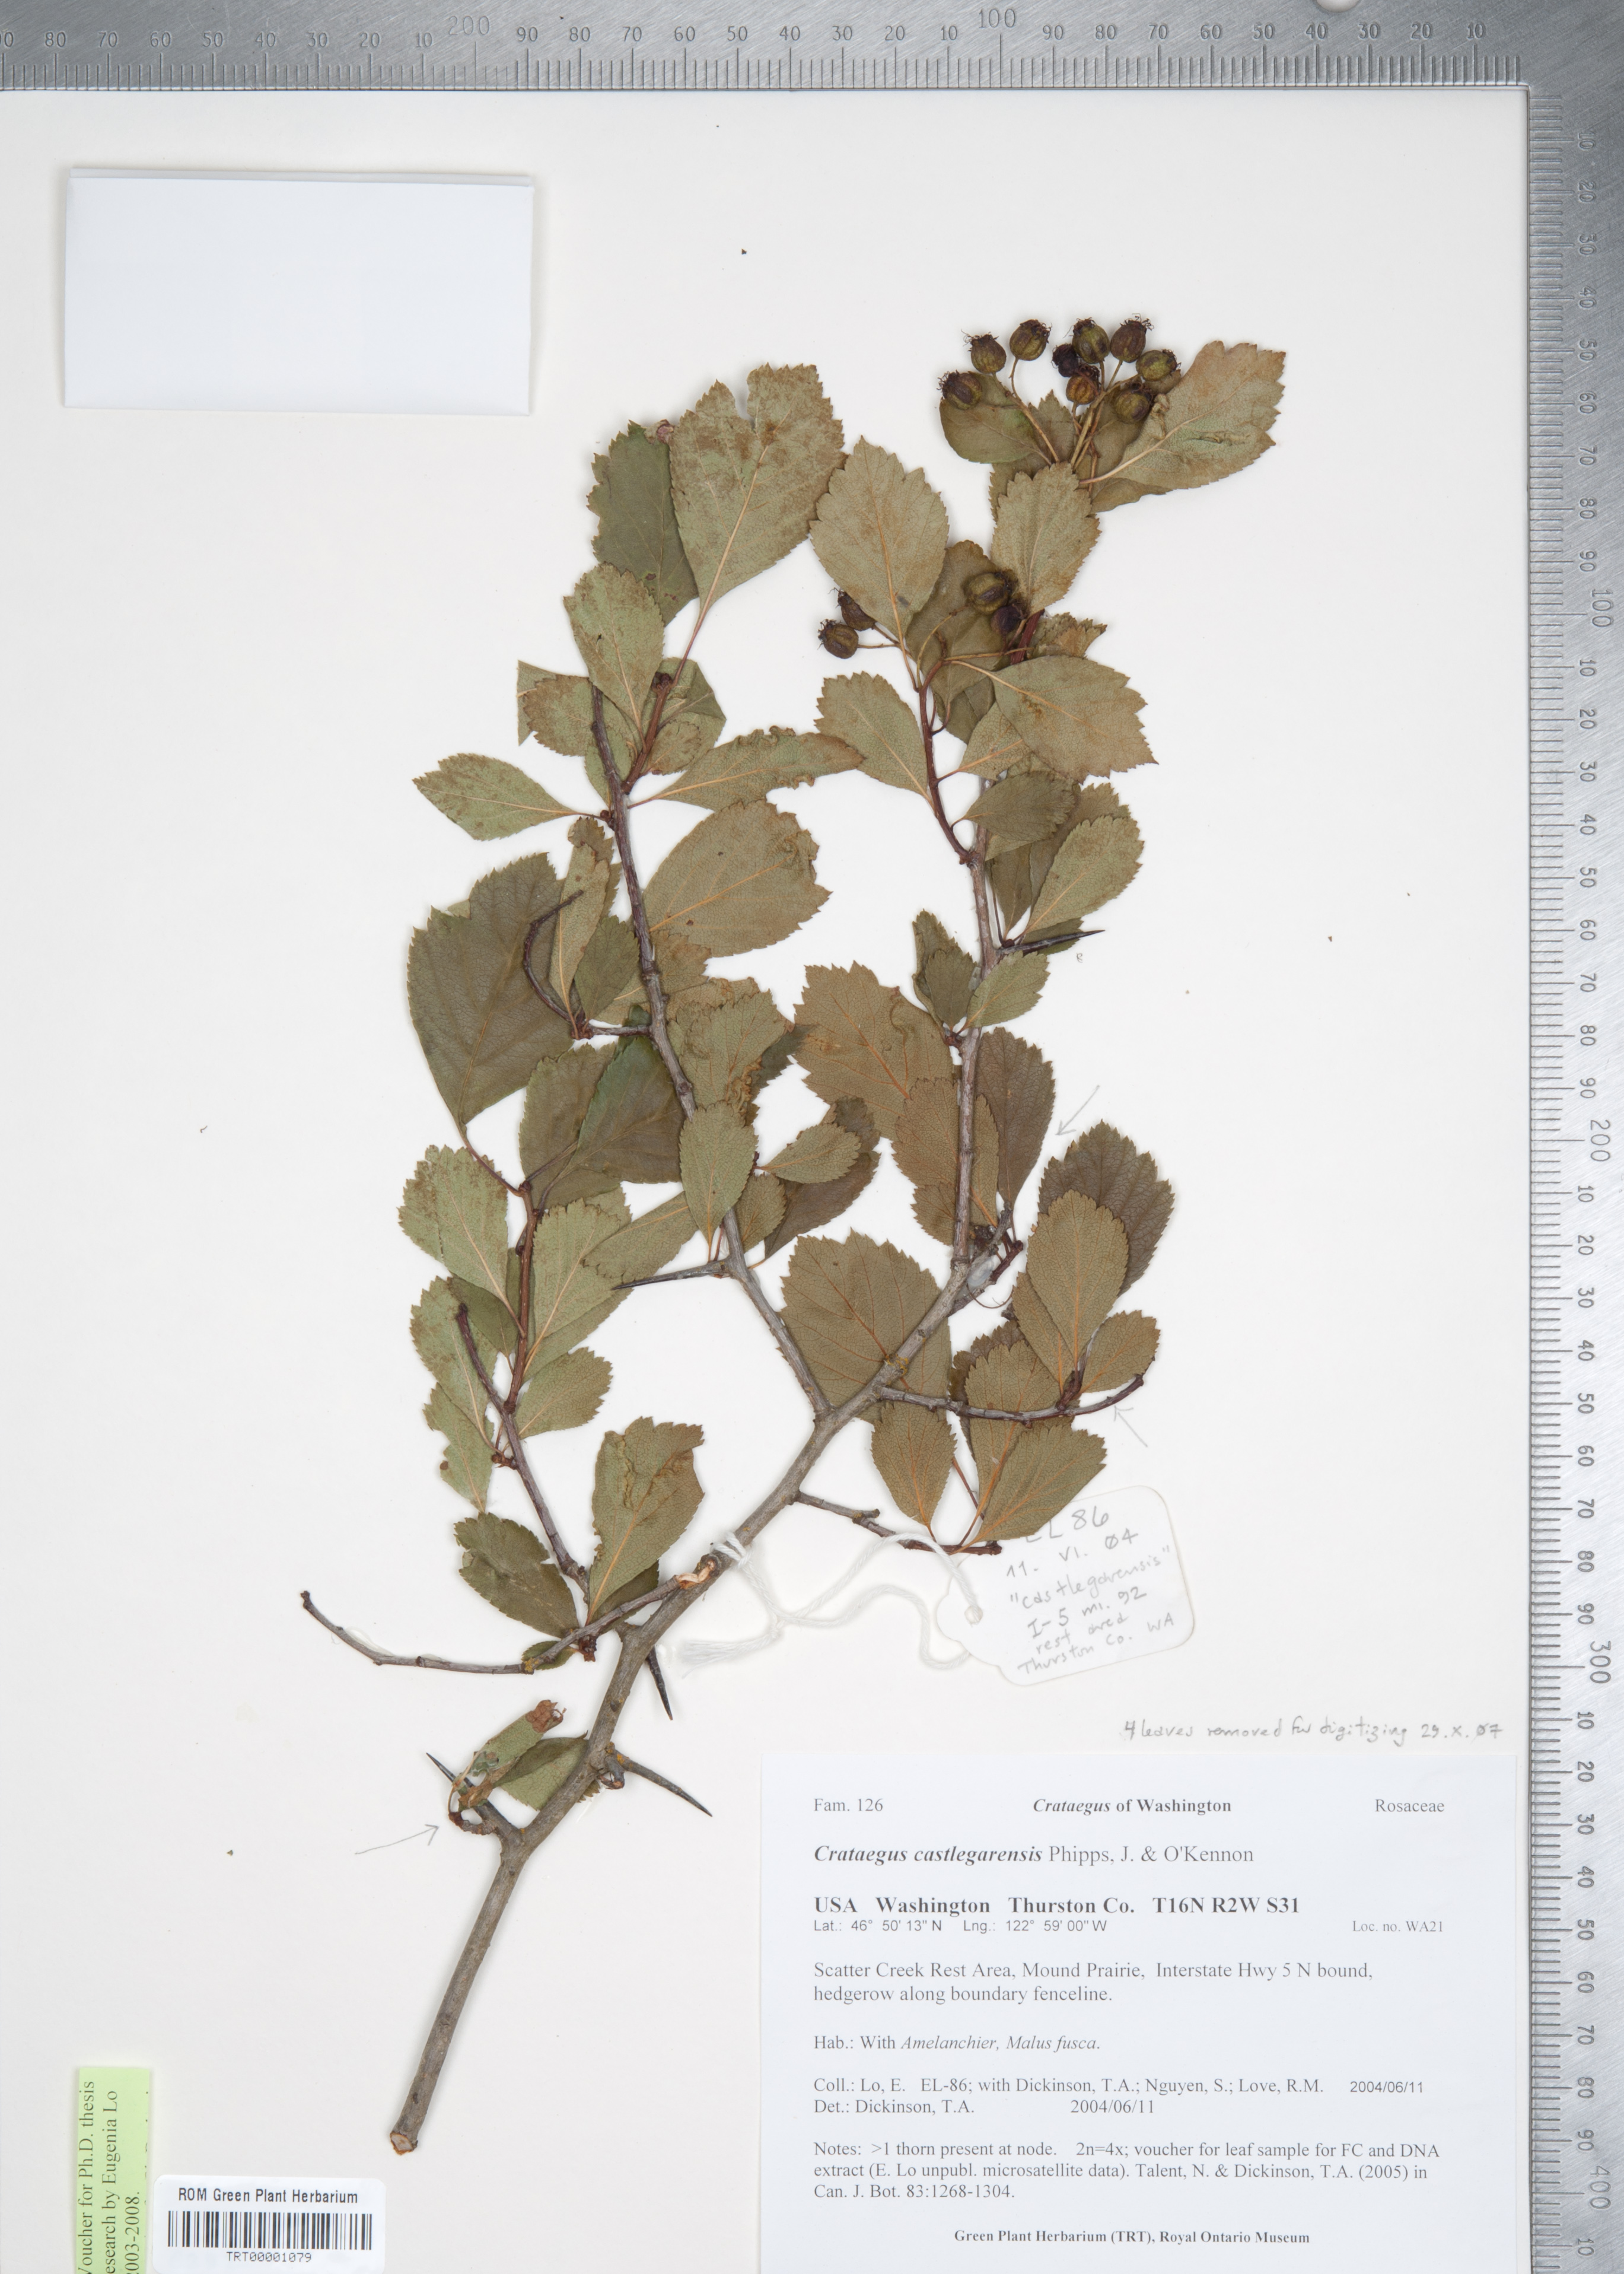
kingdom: Plantae
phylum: Tracheophyta
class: Magnoliopsida
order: Rosales
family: Rosaceae
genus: Crataegus
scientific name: Crataegus castlegarensis
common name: Castlegar hawthorn
